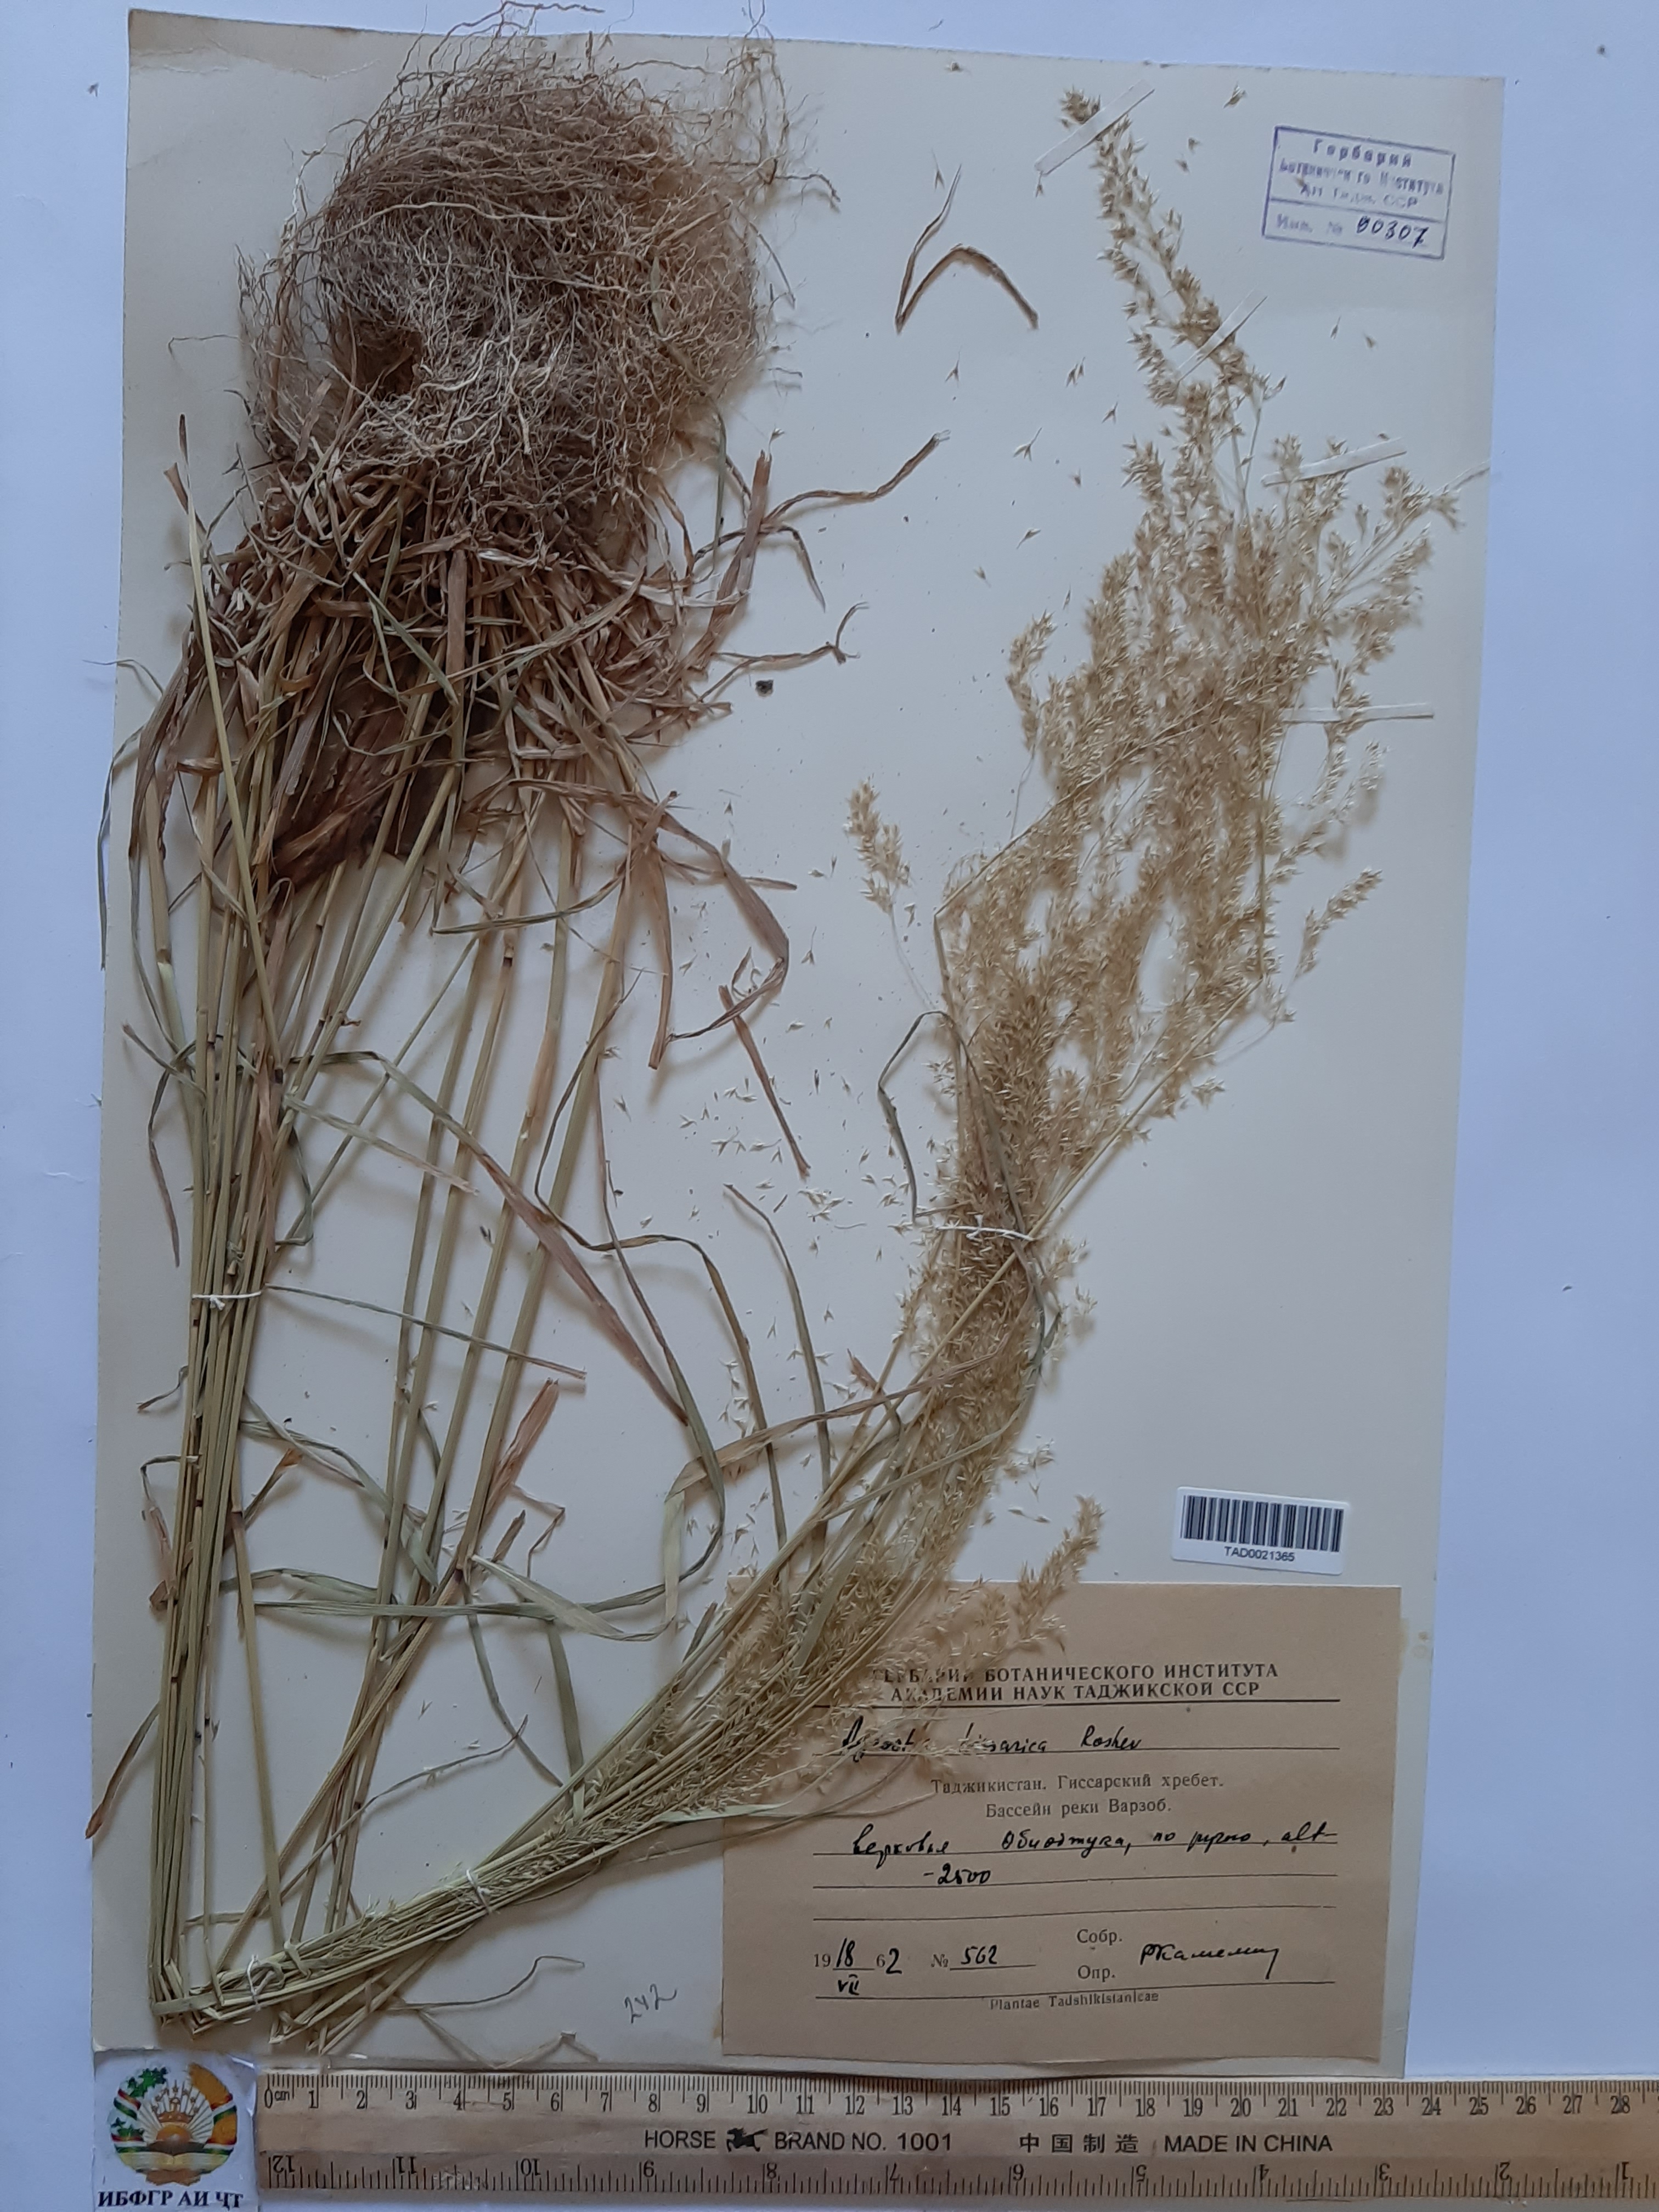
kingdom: Plantae
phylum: Tracheophyta
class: Liliopsida
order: Poales
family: Poaceae
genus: Polypogon
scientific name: Polypogon hissaricus
